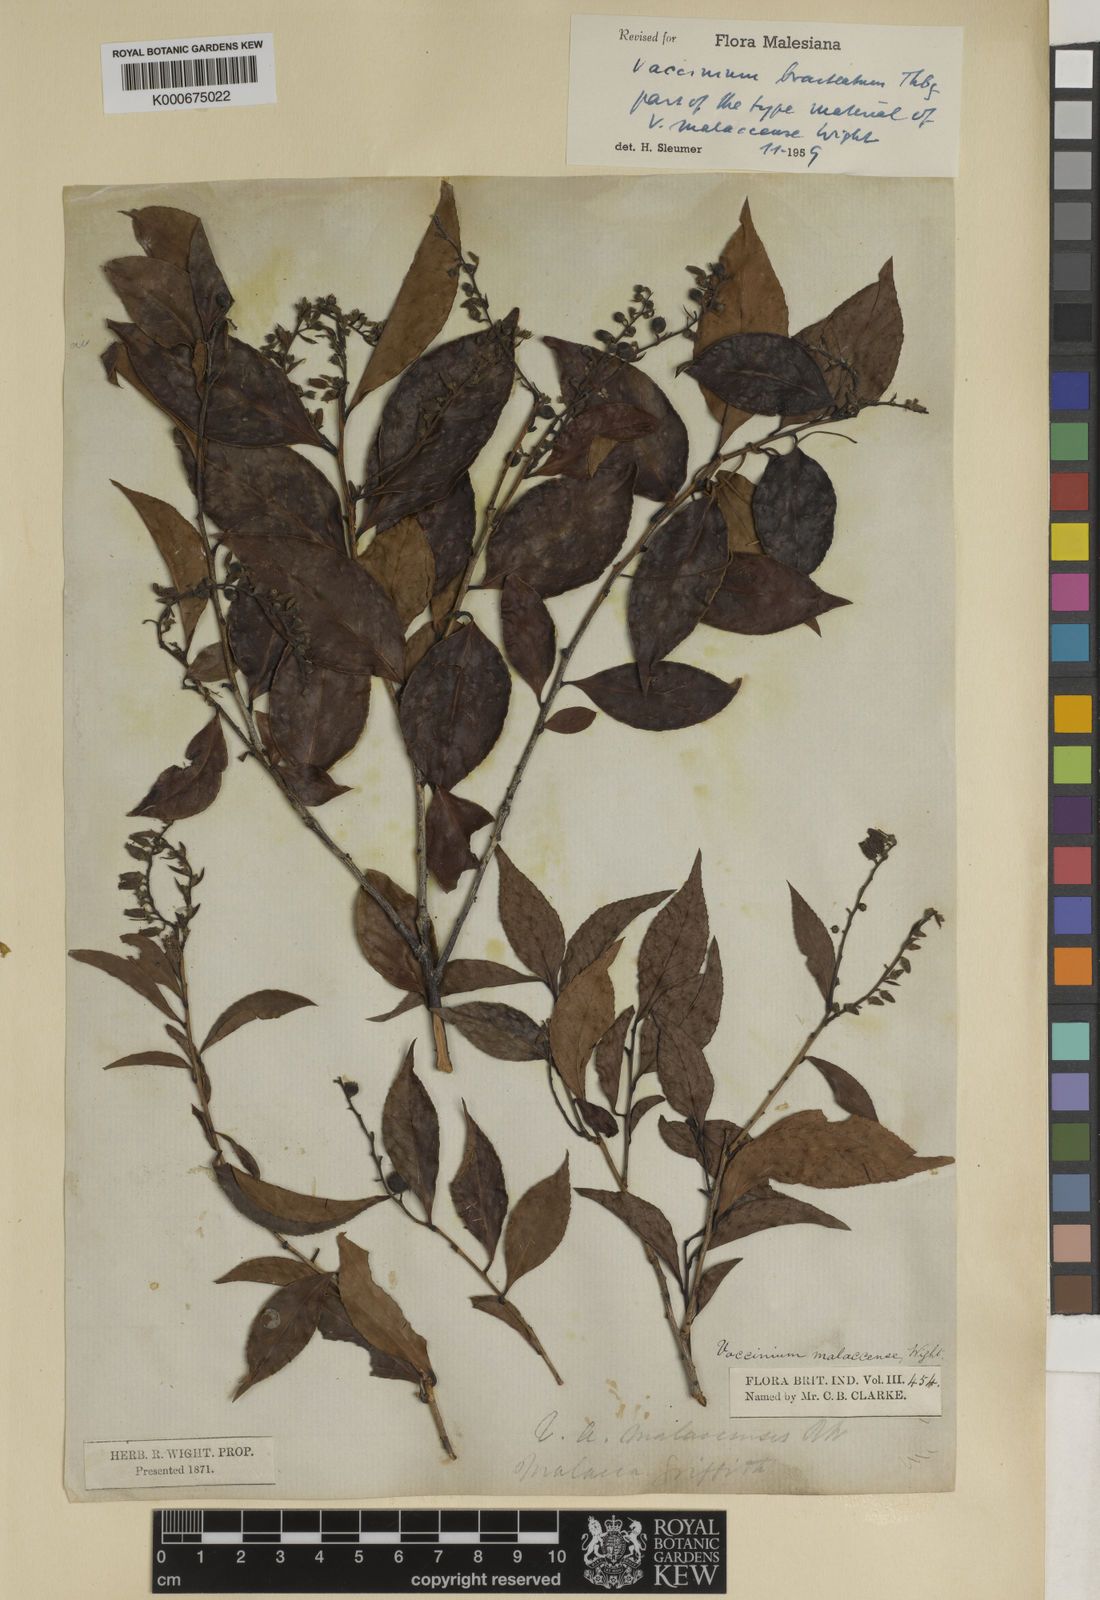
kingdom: Plantae
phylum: Tracheophyta
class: Magnoliopsida
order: Ericales
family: Ericaceae
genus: Vaccinium
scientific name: Vaccinium bracteatum
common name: Sea bilberry
